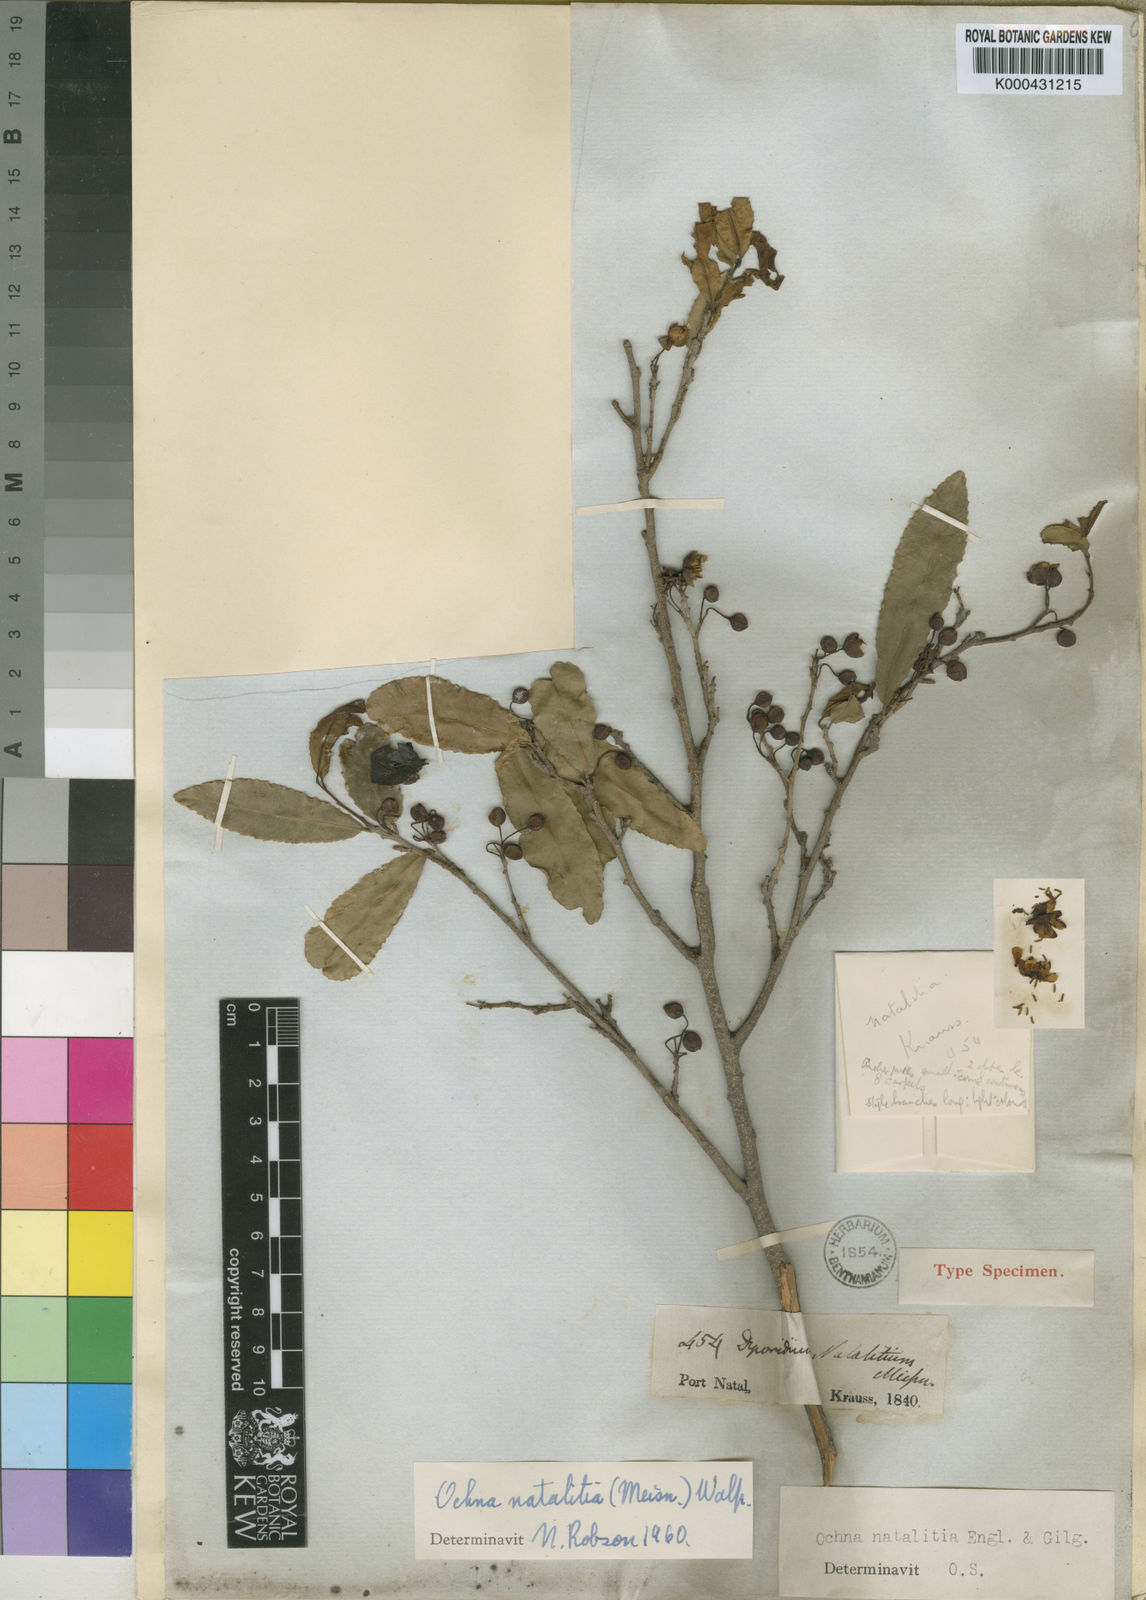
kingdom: Plantae
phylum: Tracheophyta
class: Magnoliopsida
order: Malpighiales
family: Ochnaceae
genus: Ochna
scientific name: Ochna natalitia
